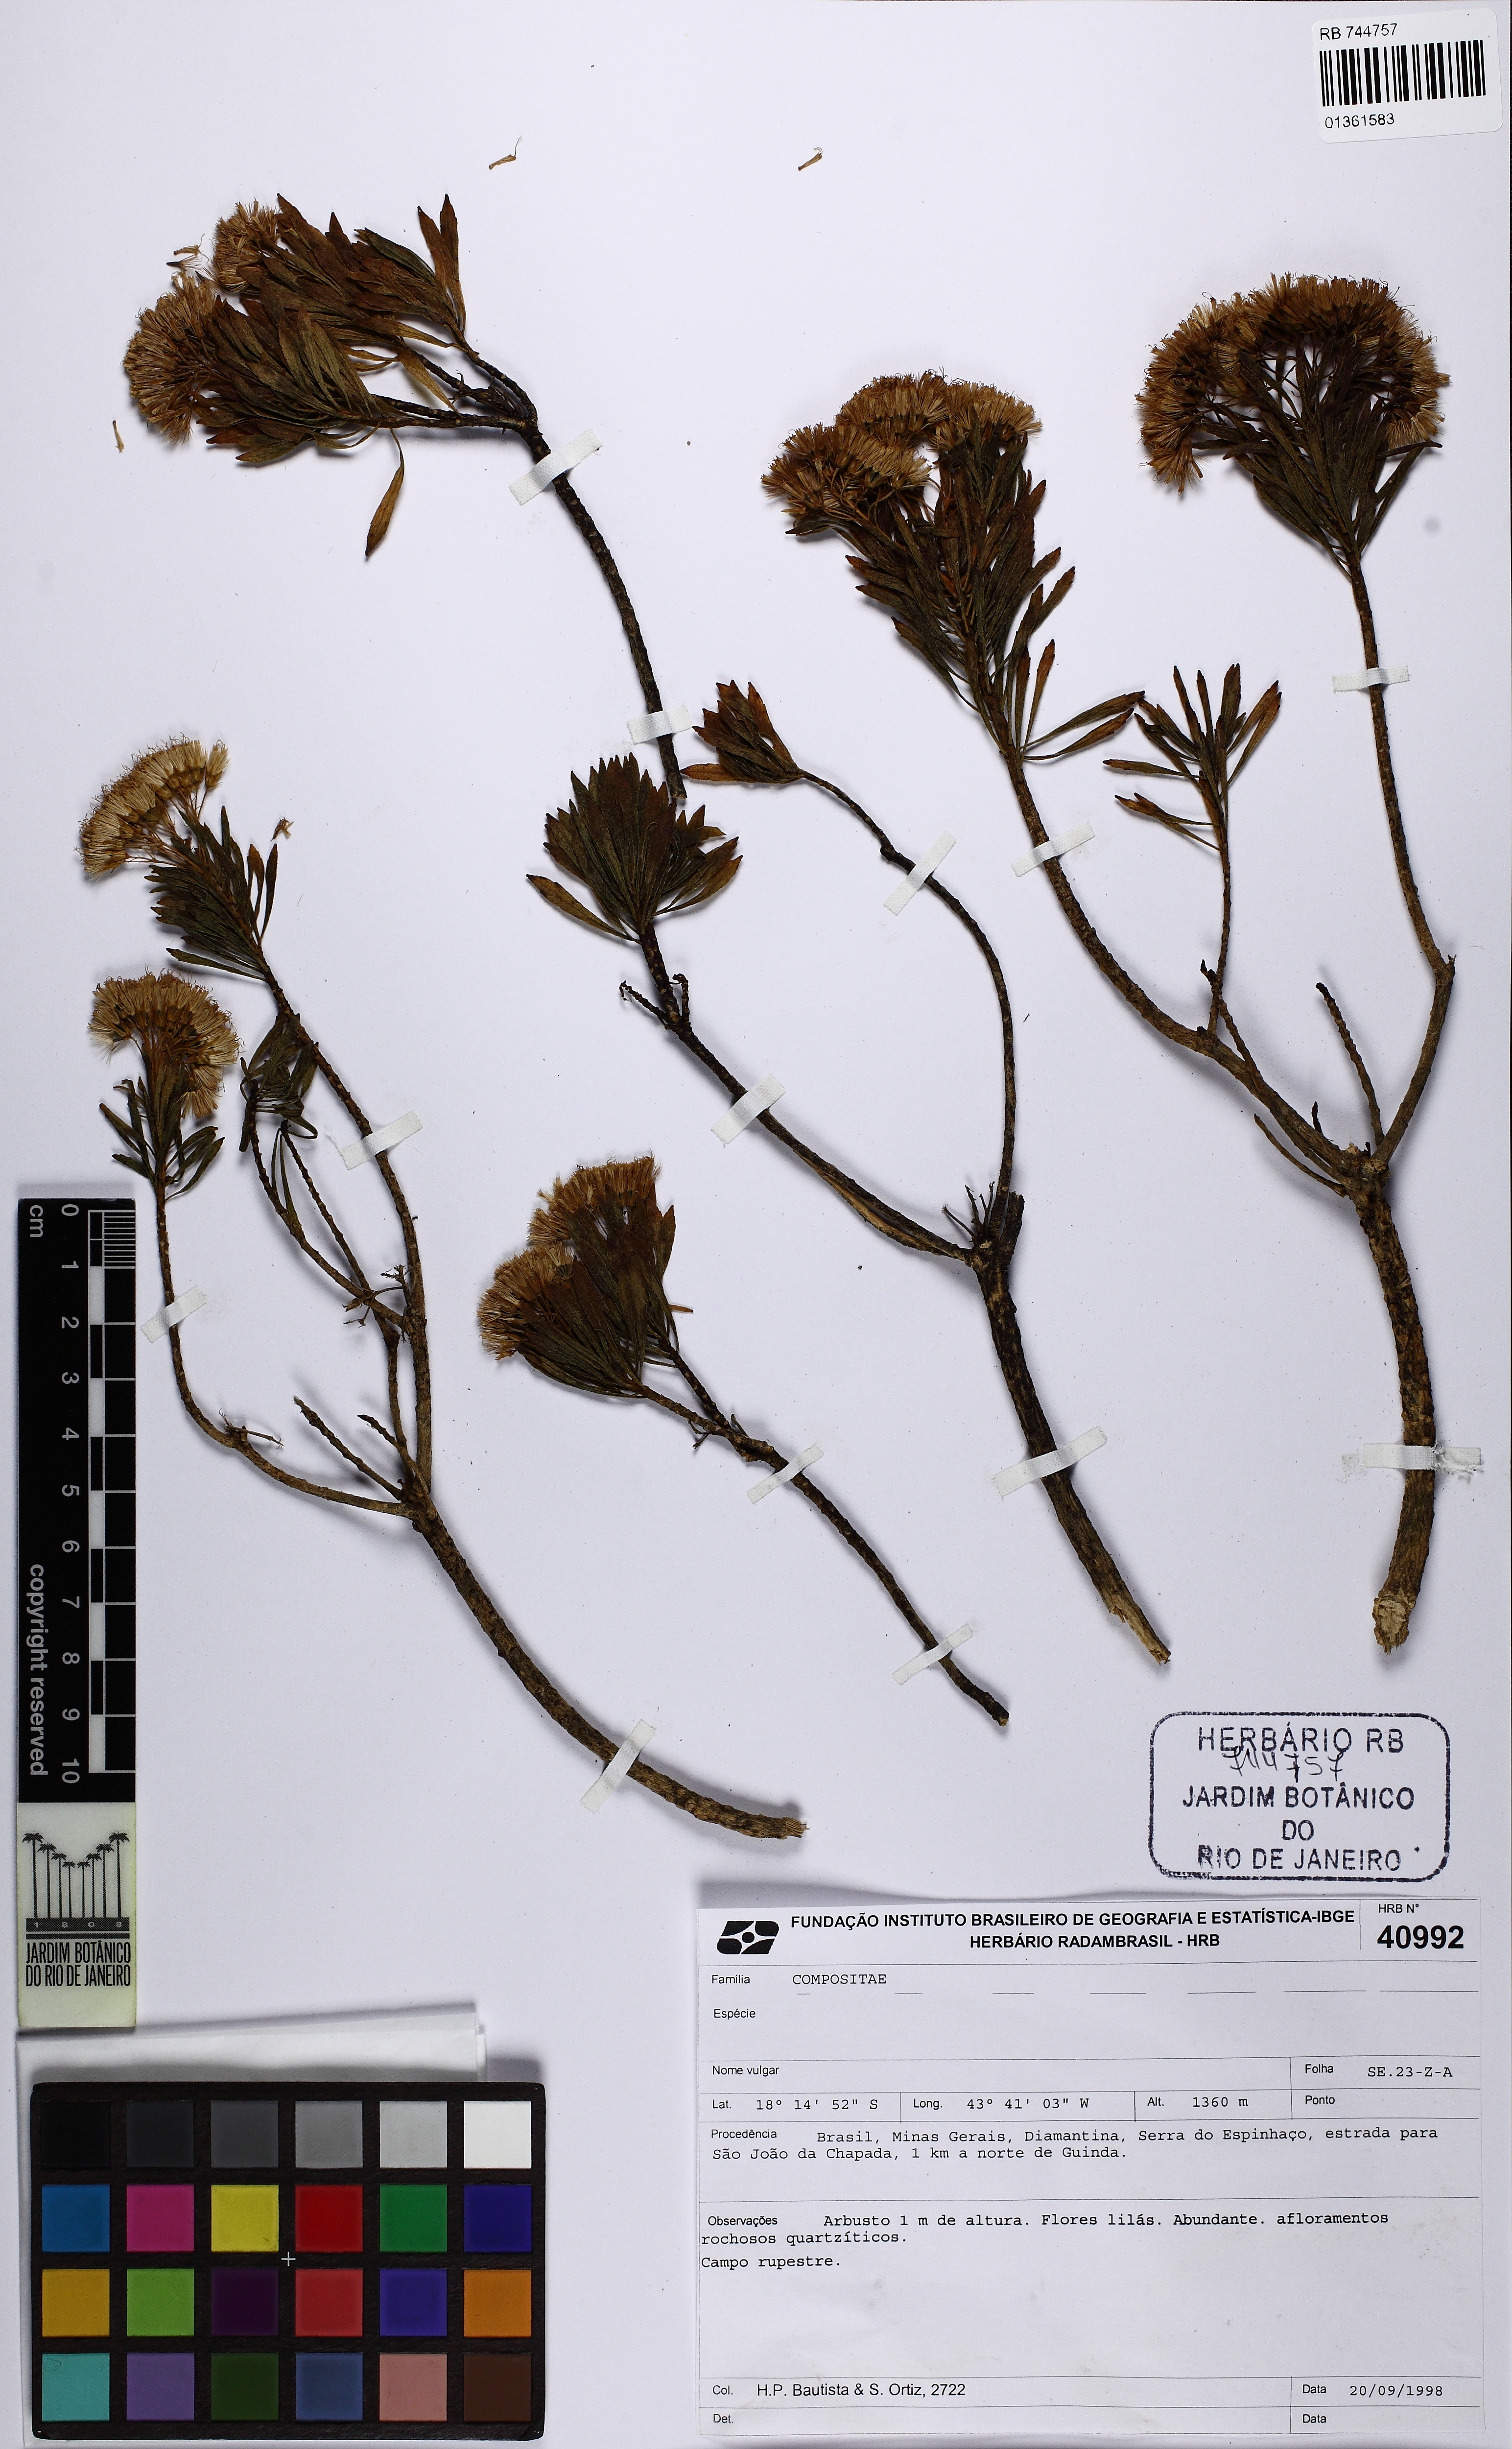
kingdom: Plantae
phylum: Tracheophyta
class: Magnoliopsida
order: Asterales
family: Asteraceae
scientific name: Asteraceae
